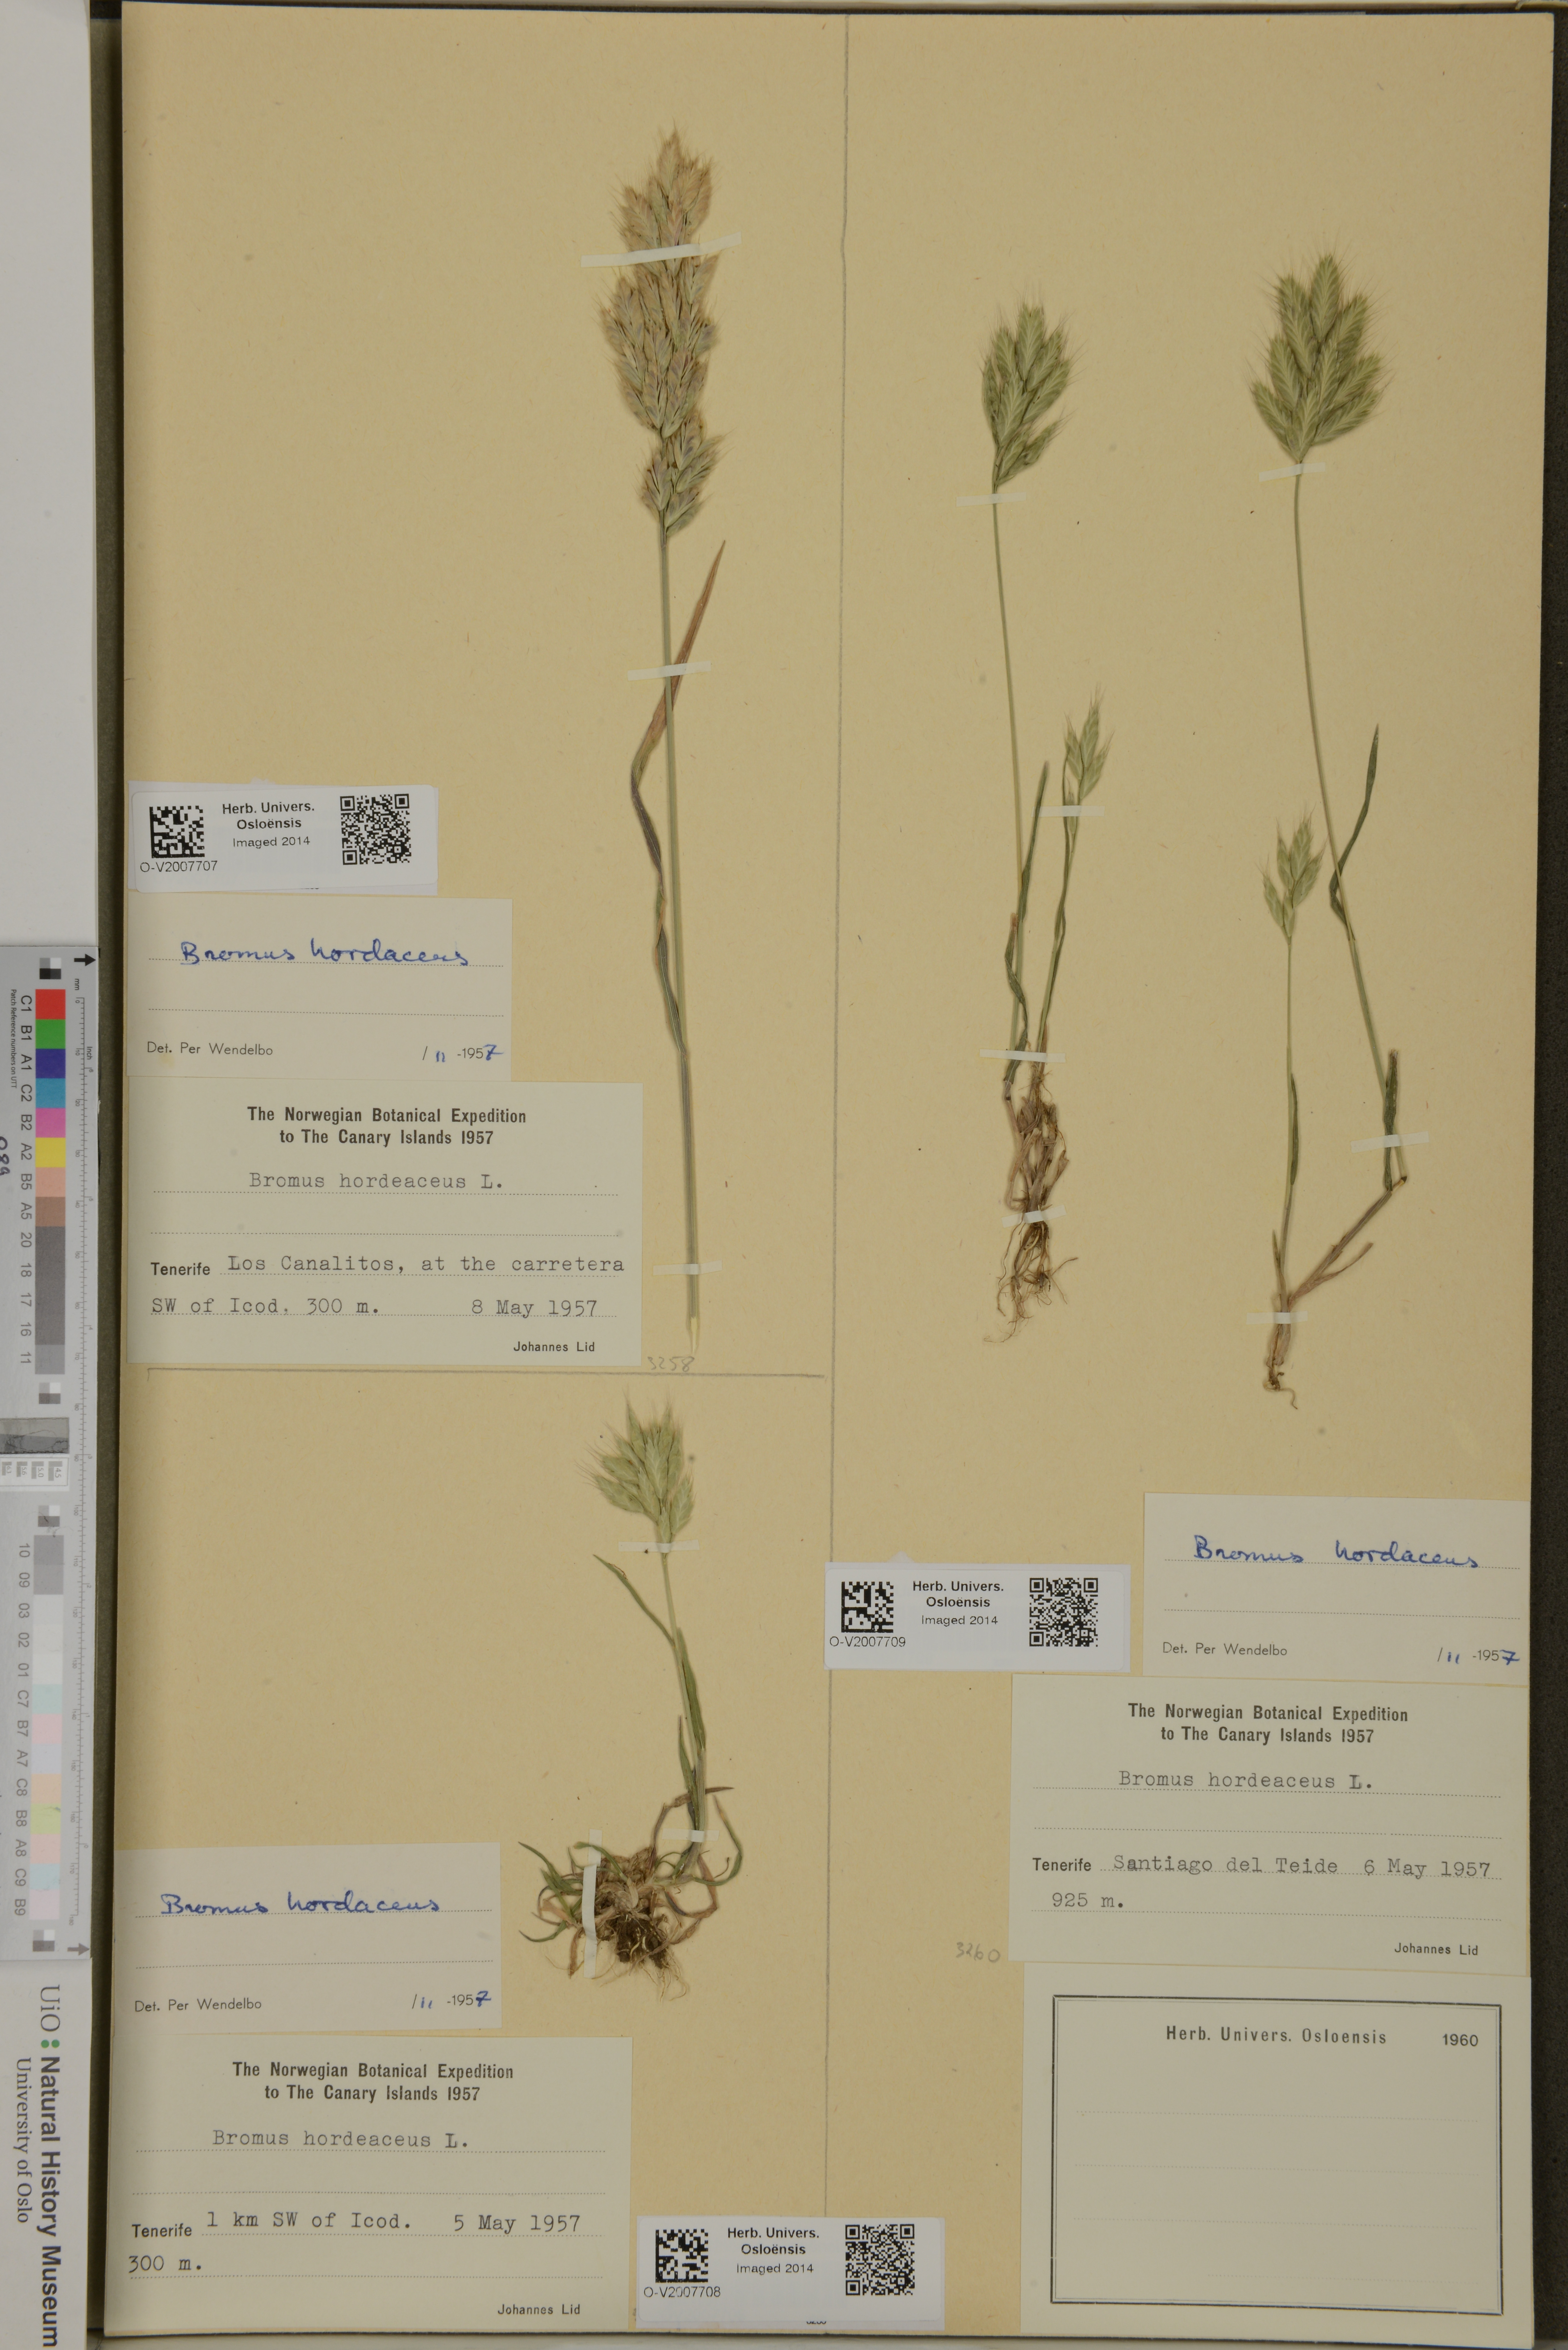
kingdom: Plantae
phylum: Tracheophyta
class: Liliopsida
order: Poales
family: Poaceae
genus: Bromus
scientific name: Bromus hordeaceus
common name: Soft brome
